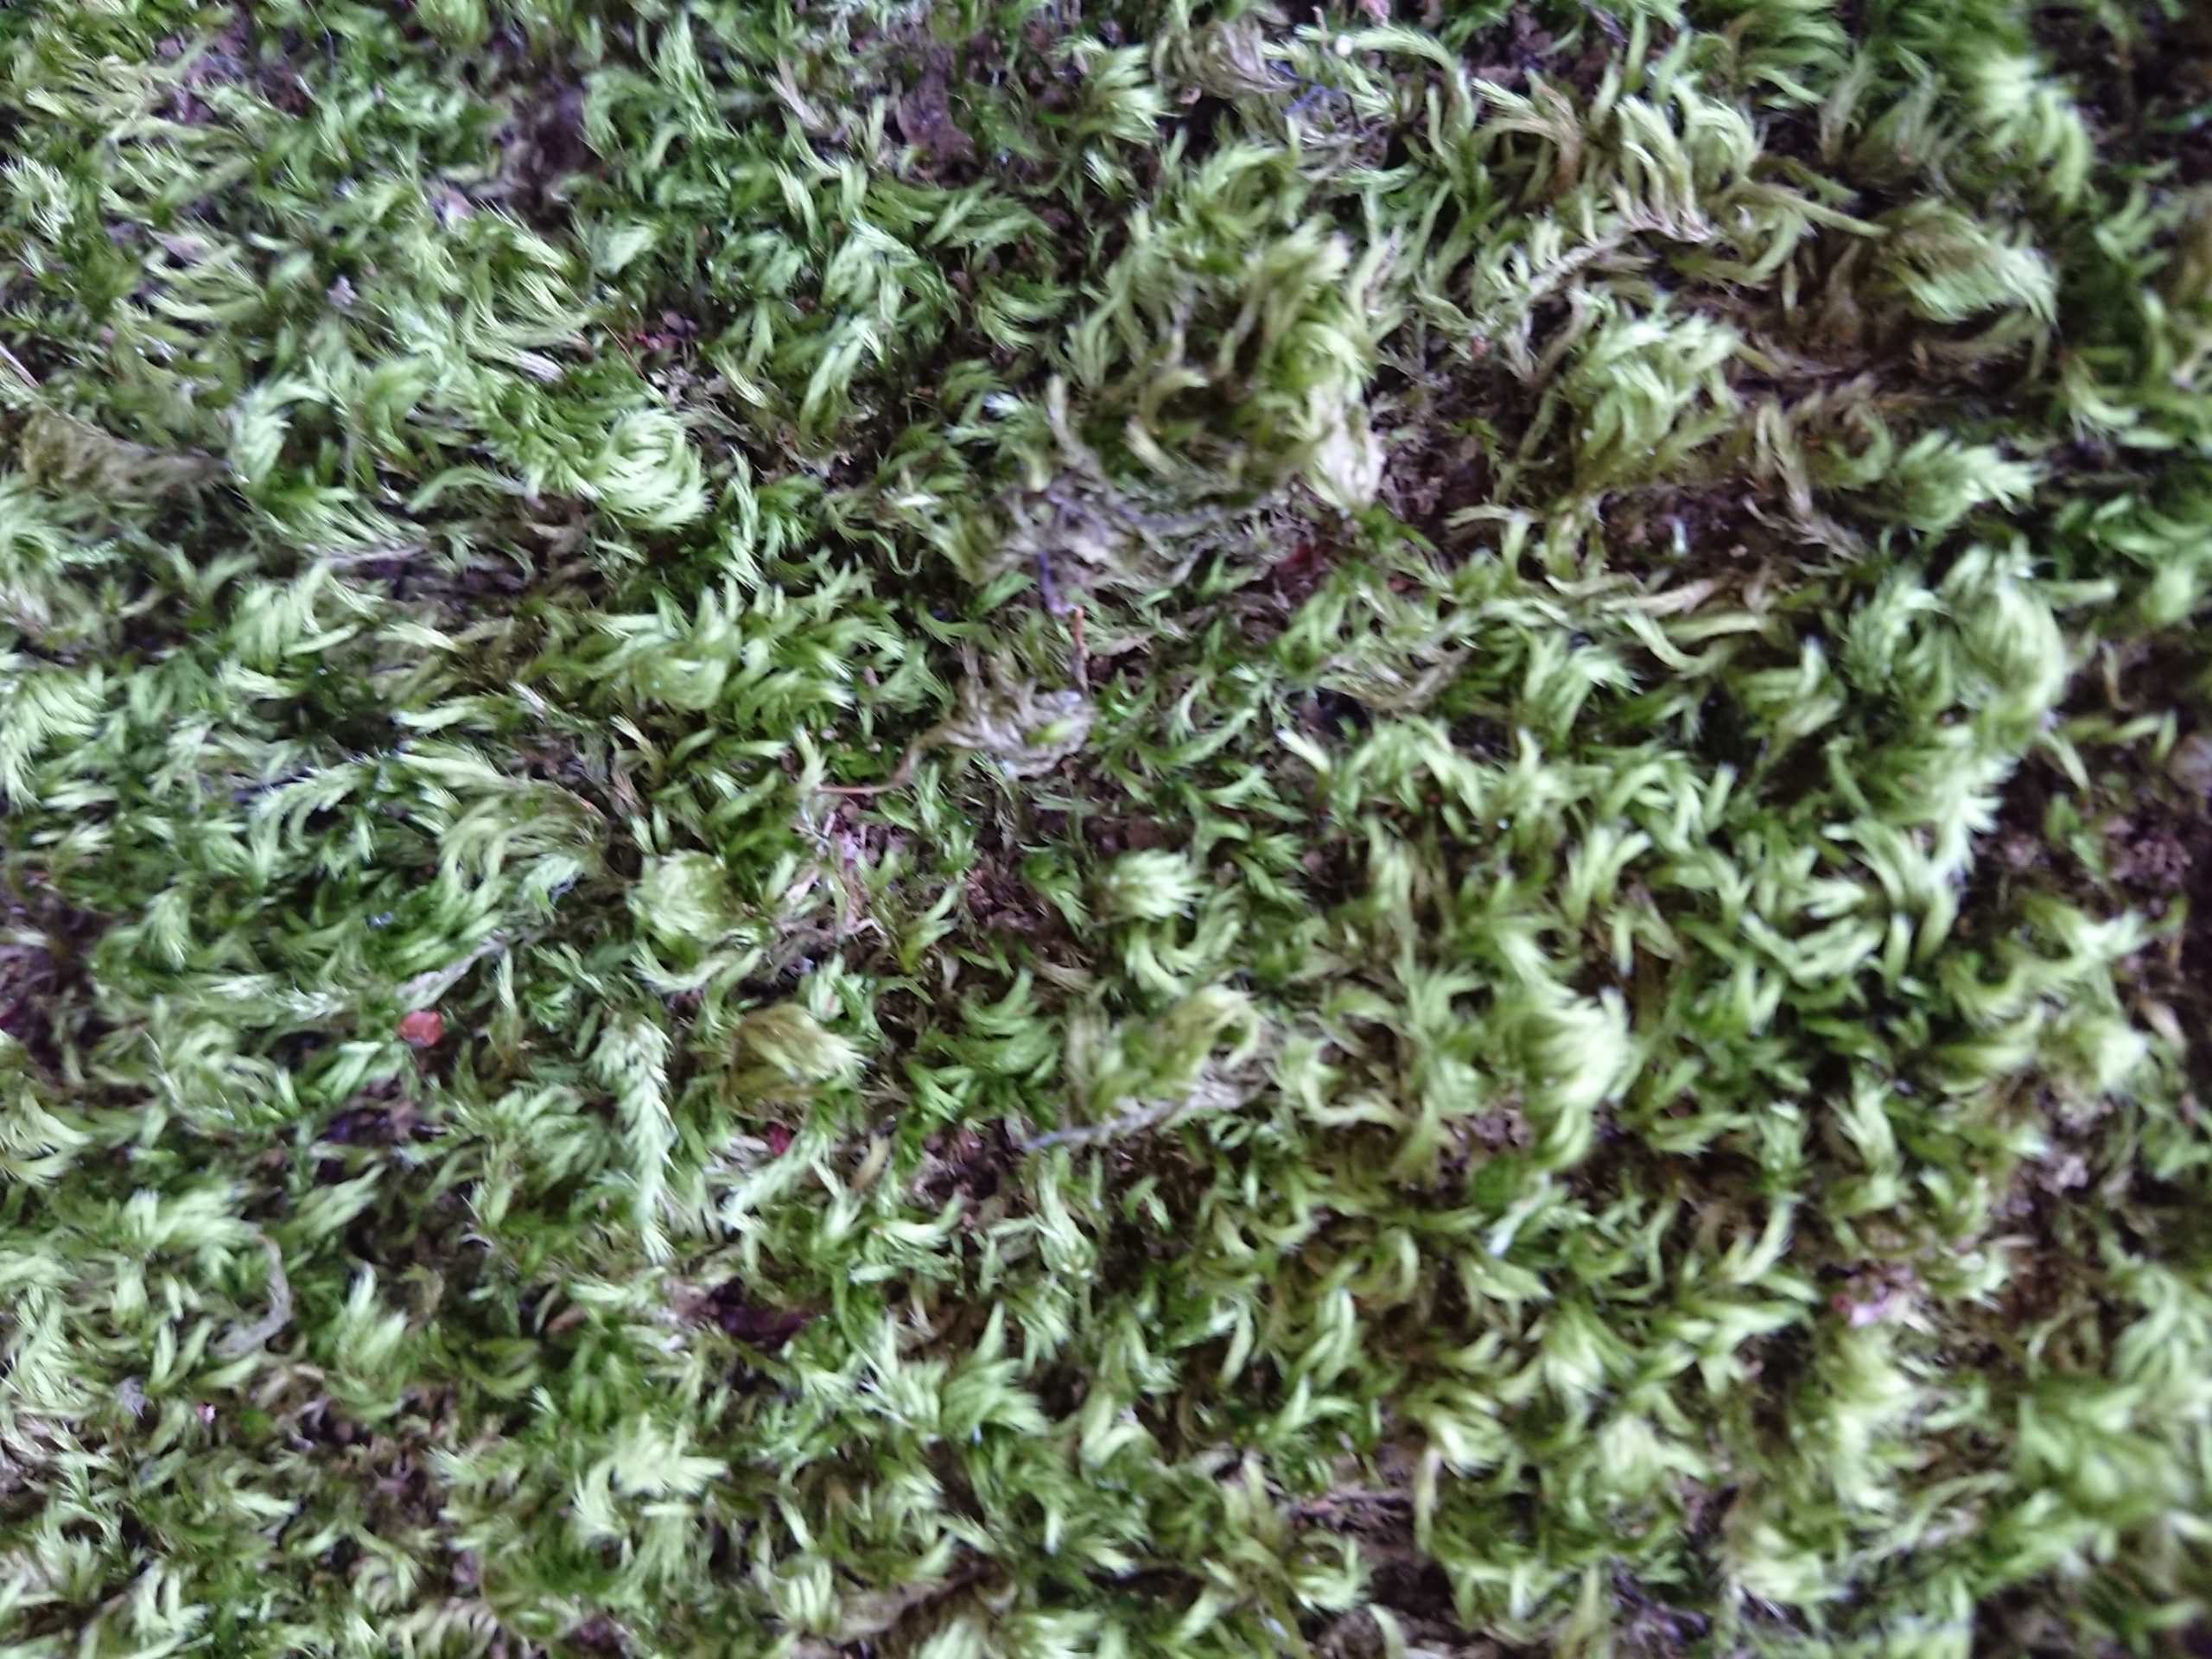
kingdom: Plantae
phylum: Bryophyta
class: Bryopsida
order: Hypnales
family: Brachytheciaceae
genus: Homalothecium
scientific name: Homalothecium sericeum
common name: Krybende silkemos
